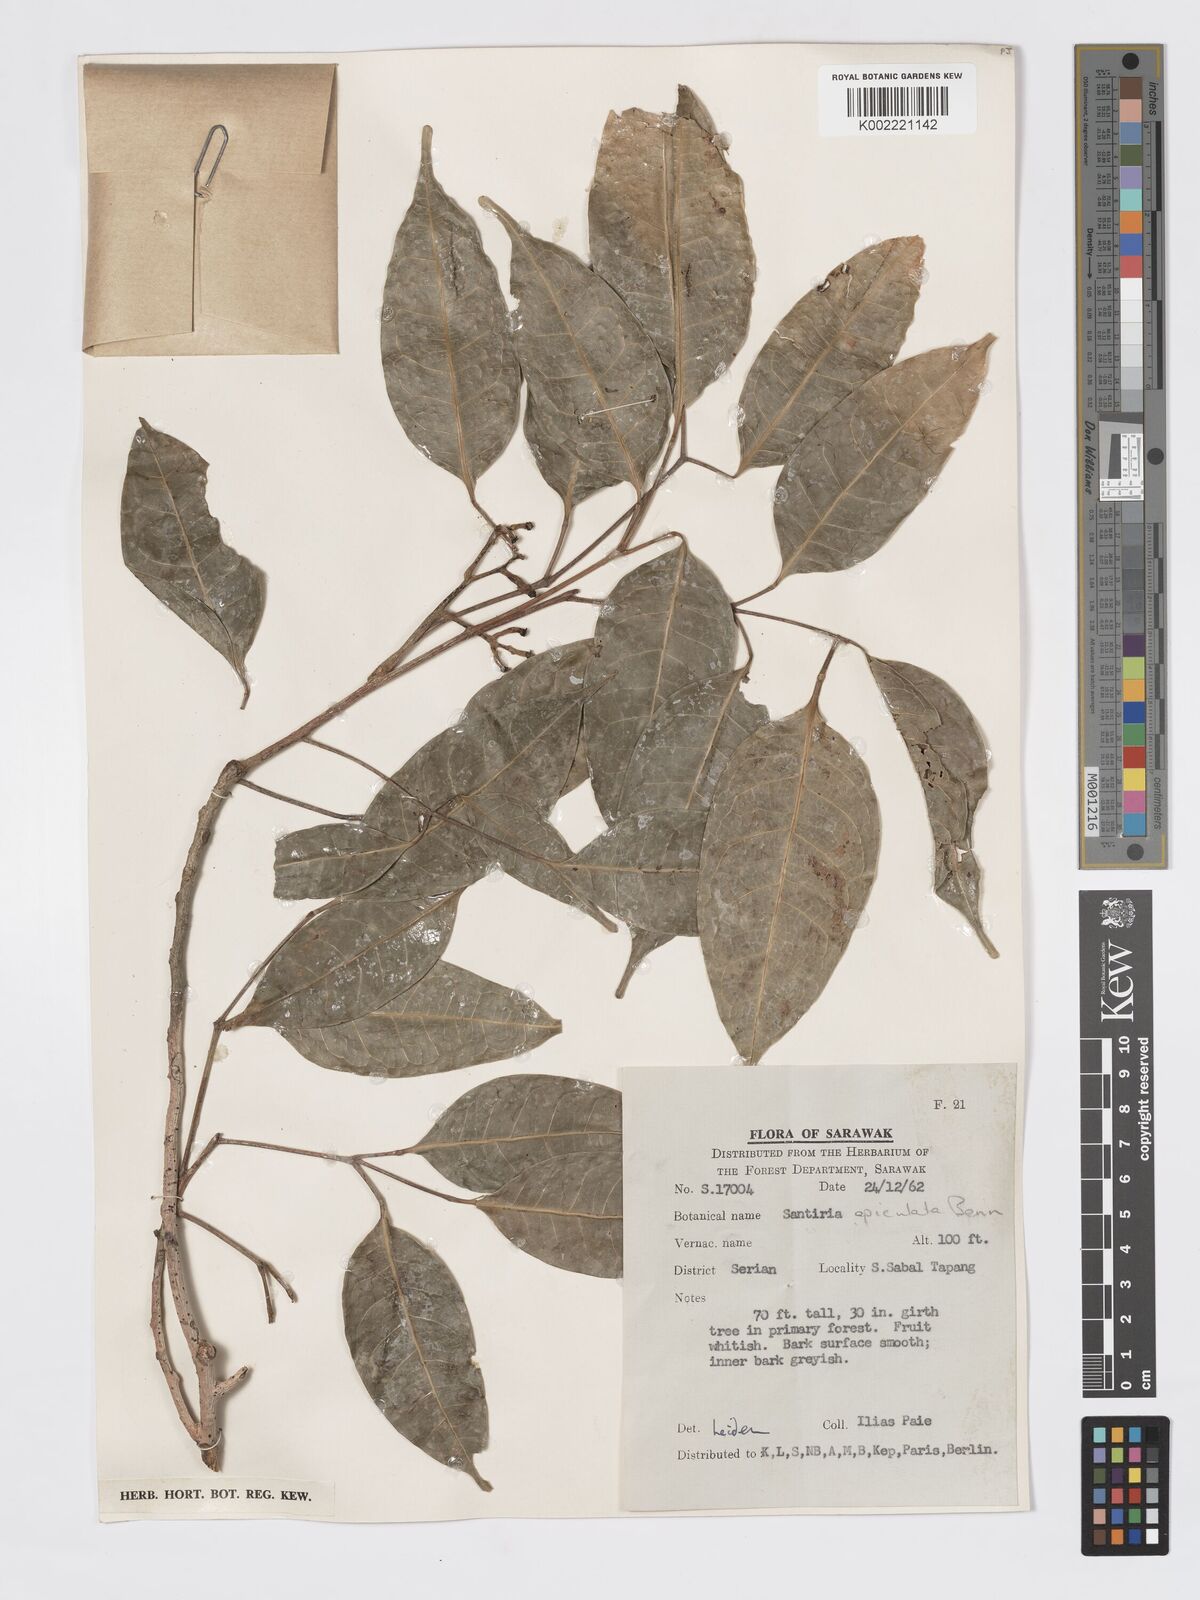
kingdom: Plantae
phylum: Tracheophyta
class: Magnoliopsida
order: Sapindales
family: Burseraceae
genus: Santiria
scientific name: Santiria apiculata
